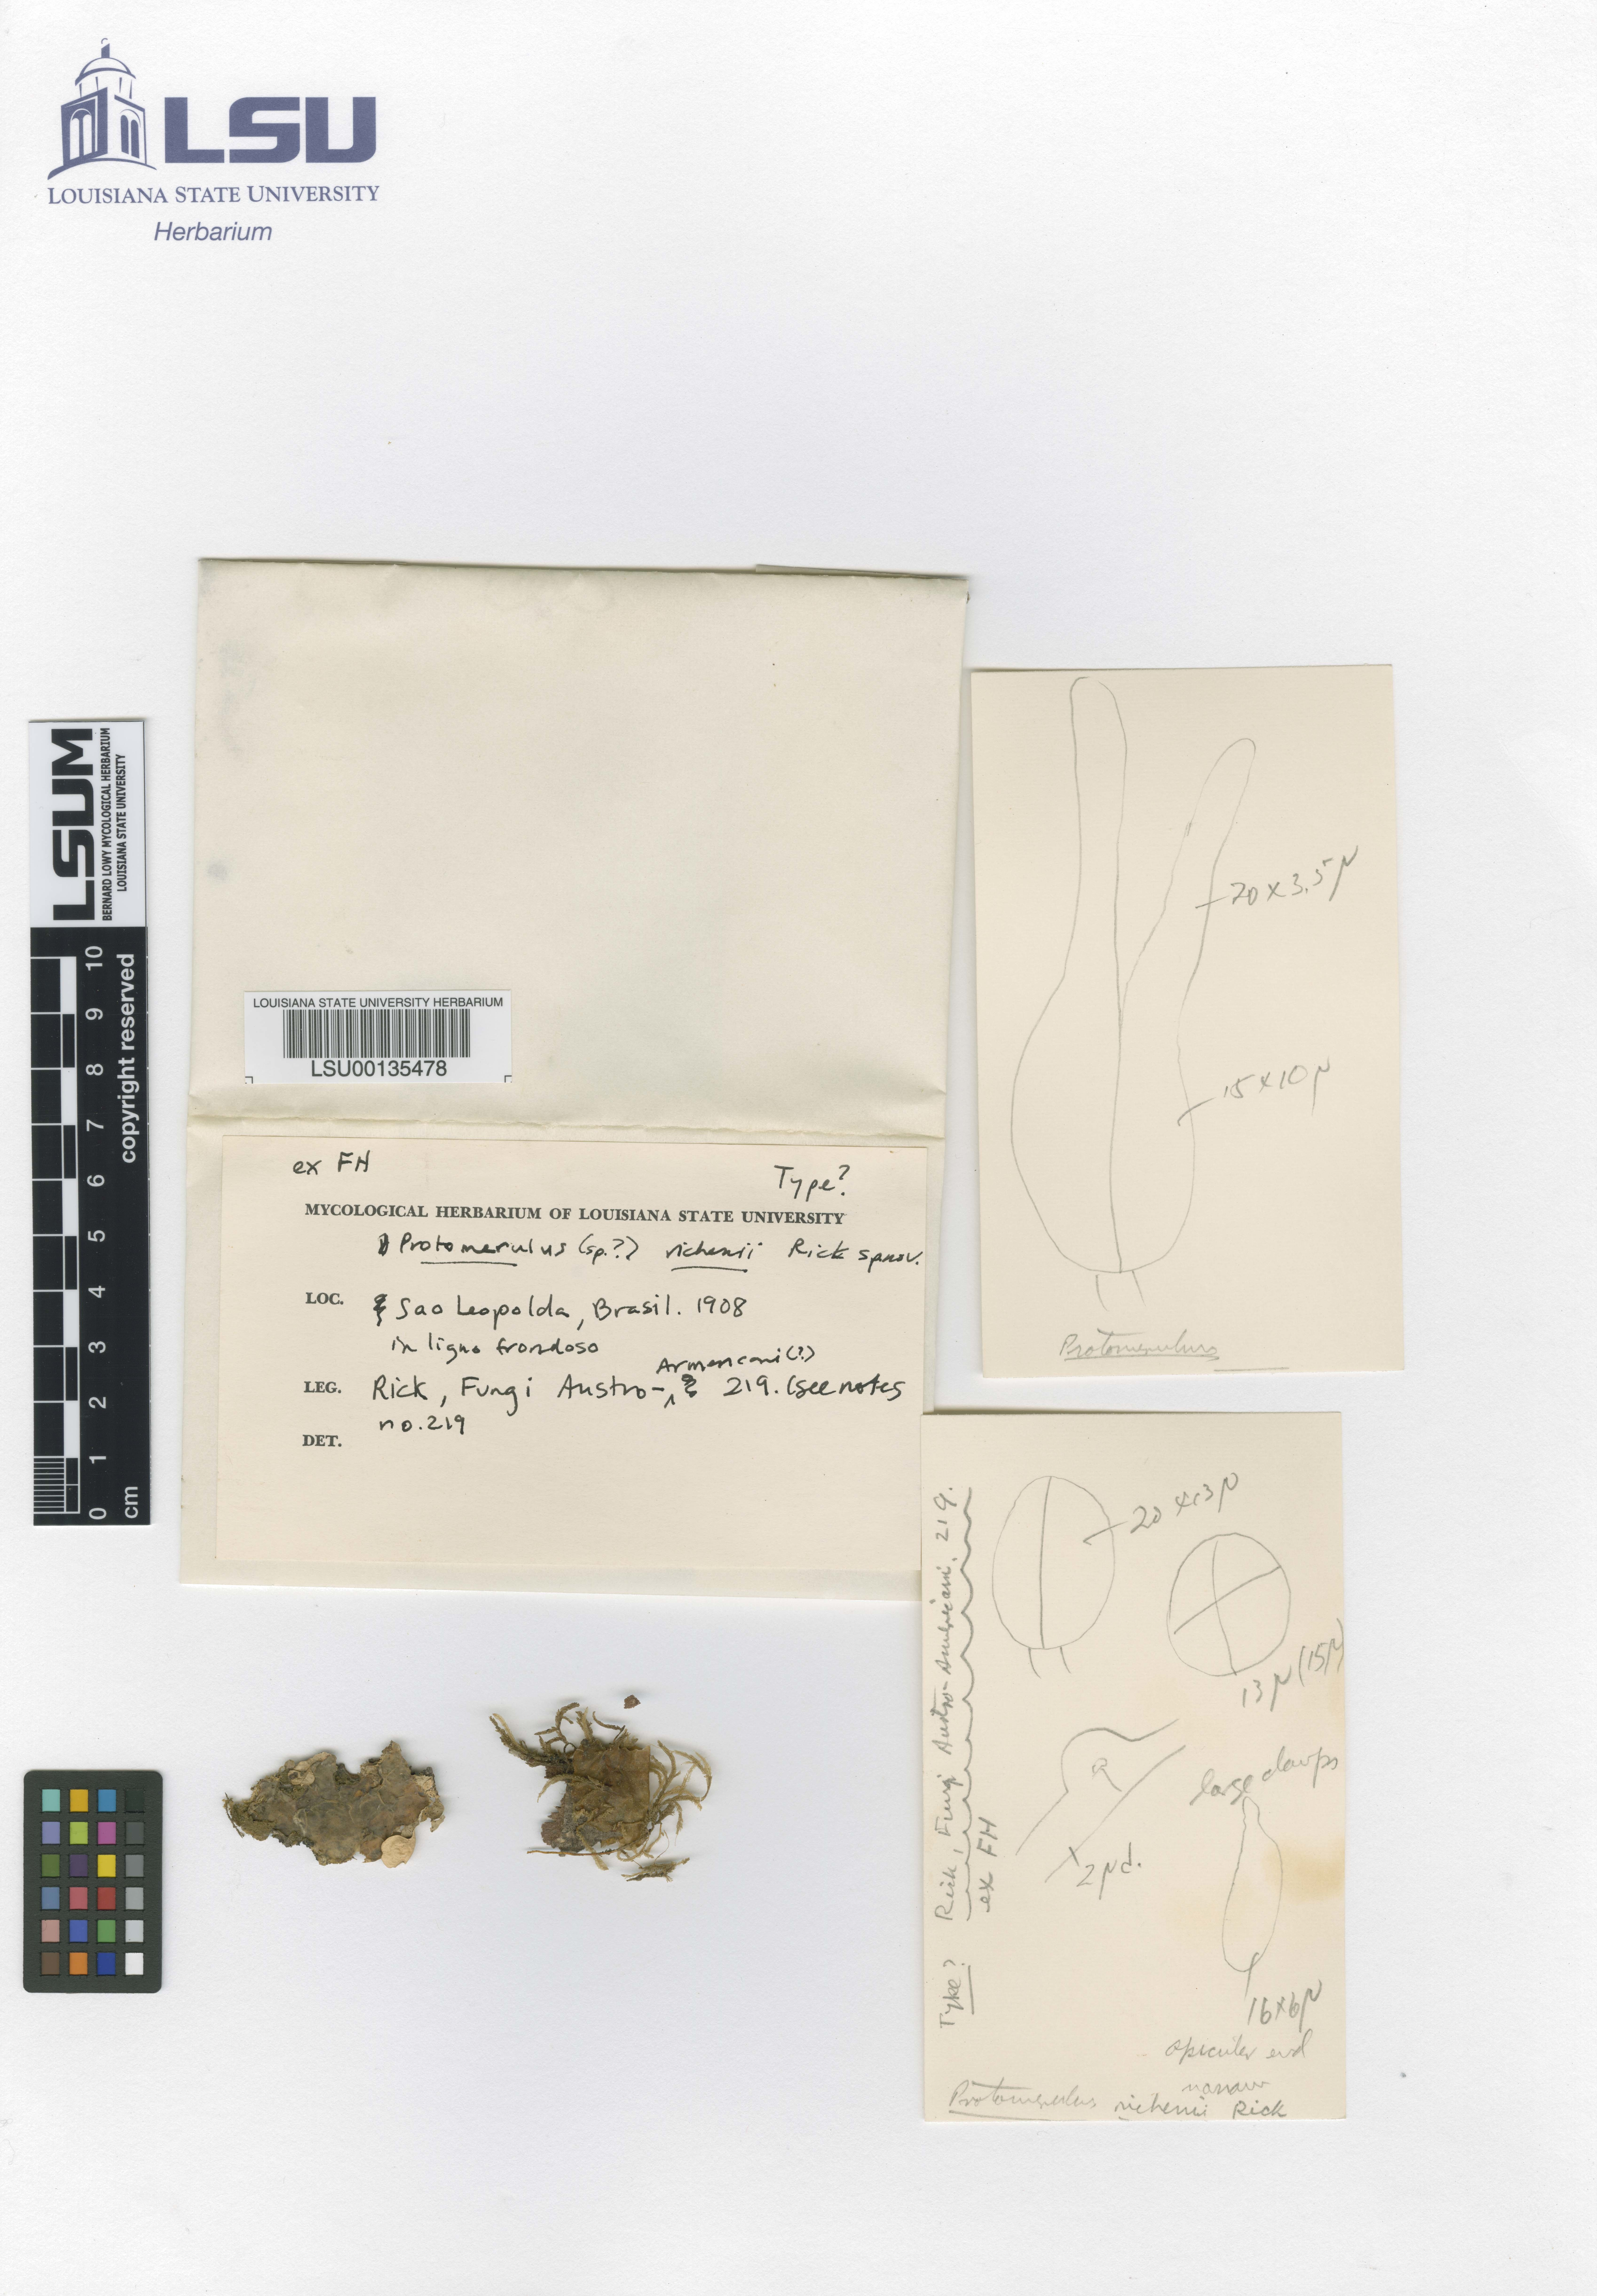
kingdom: Fungi
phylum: Basidiomycota
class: Agaricomycetes
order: Auriculariales
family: Hyaloriaceae
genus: Protomerulius
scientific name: Protomerulius richenii
